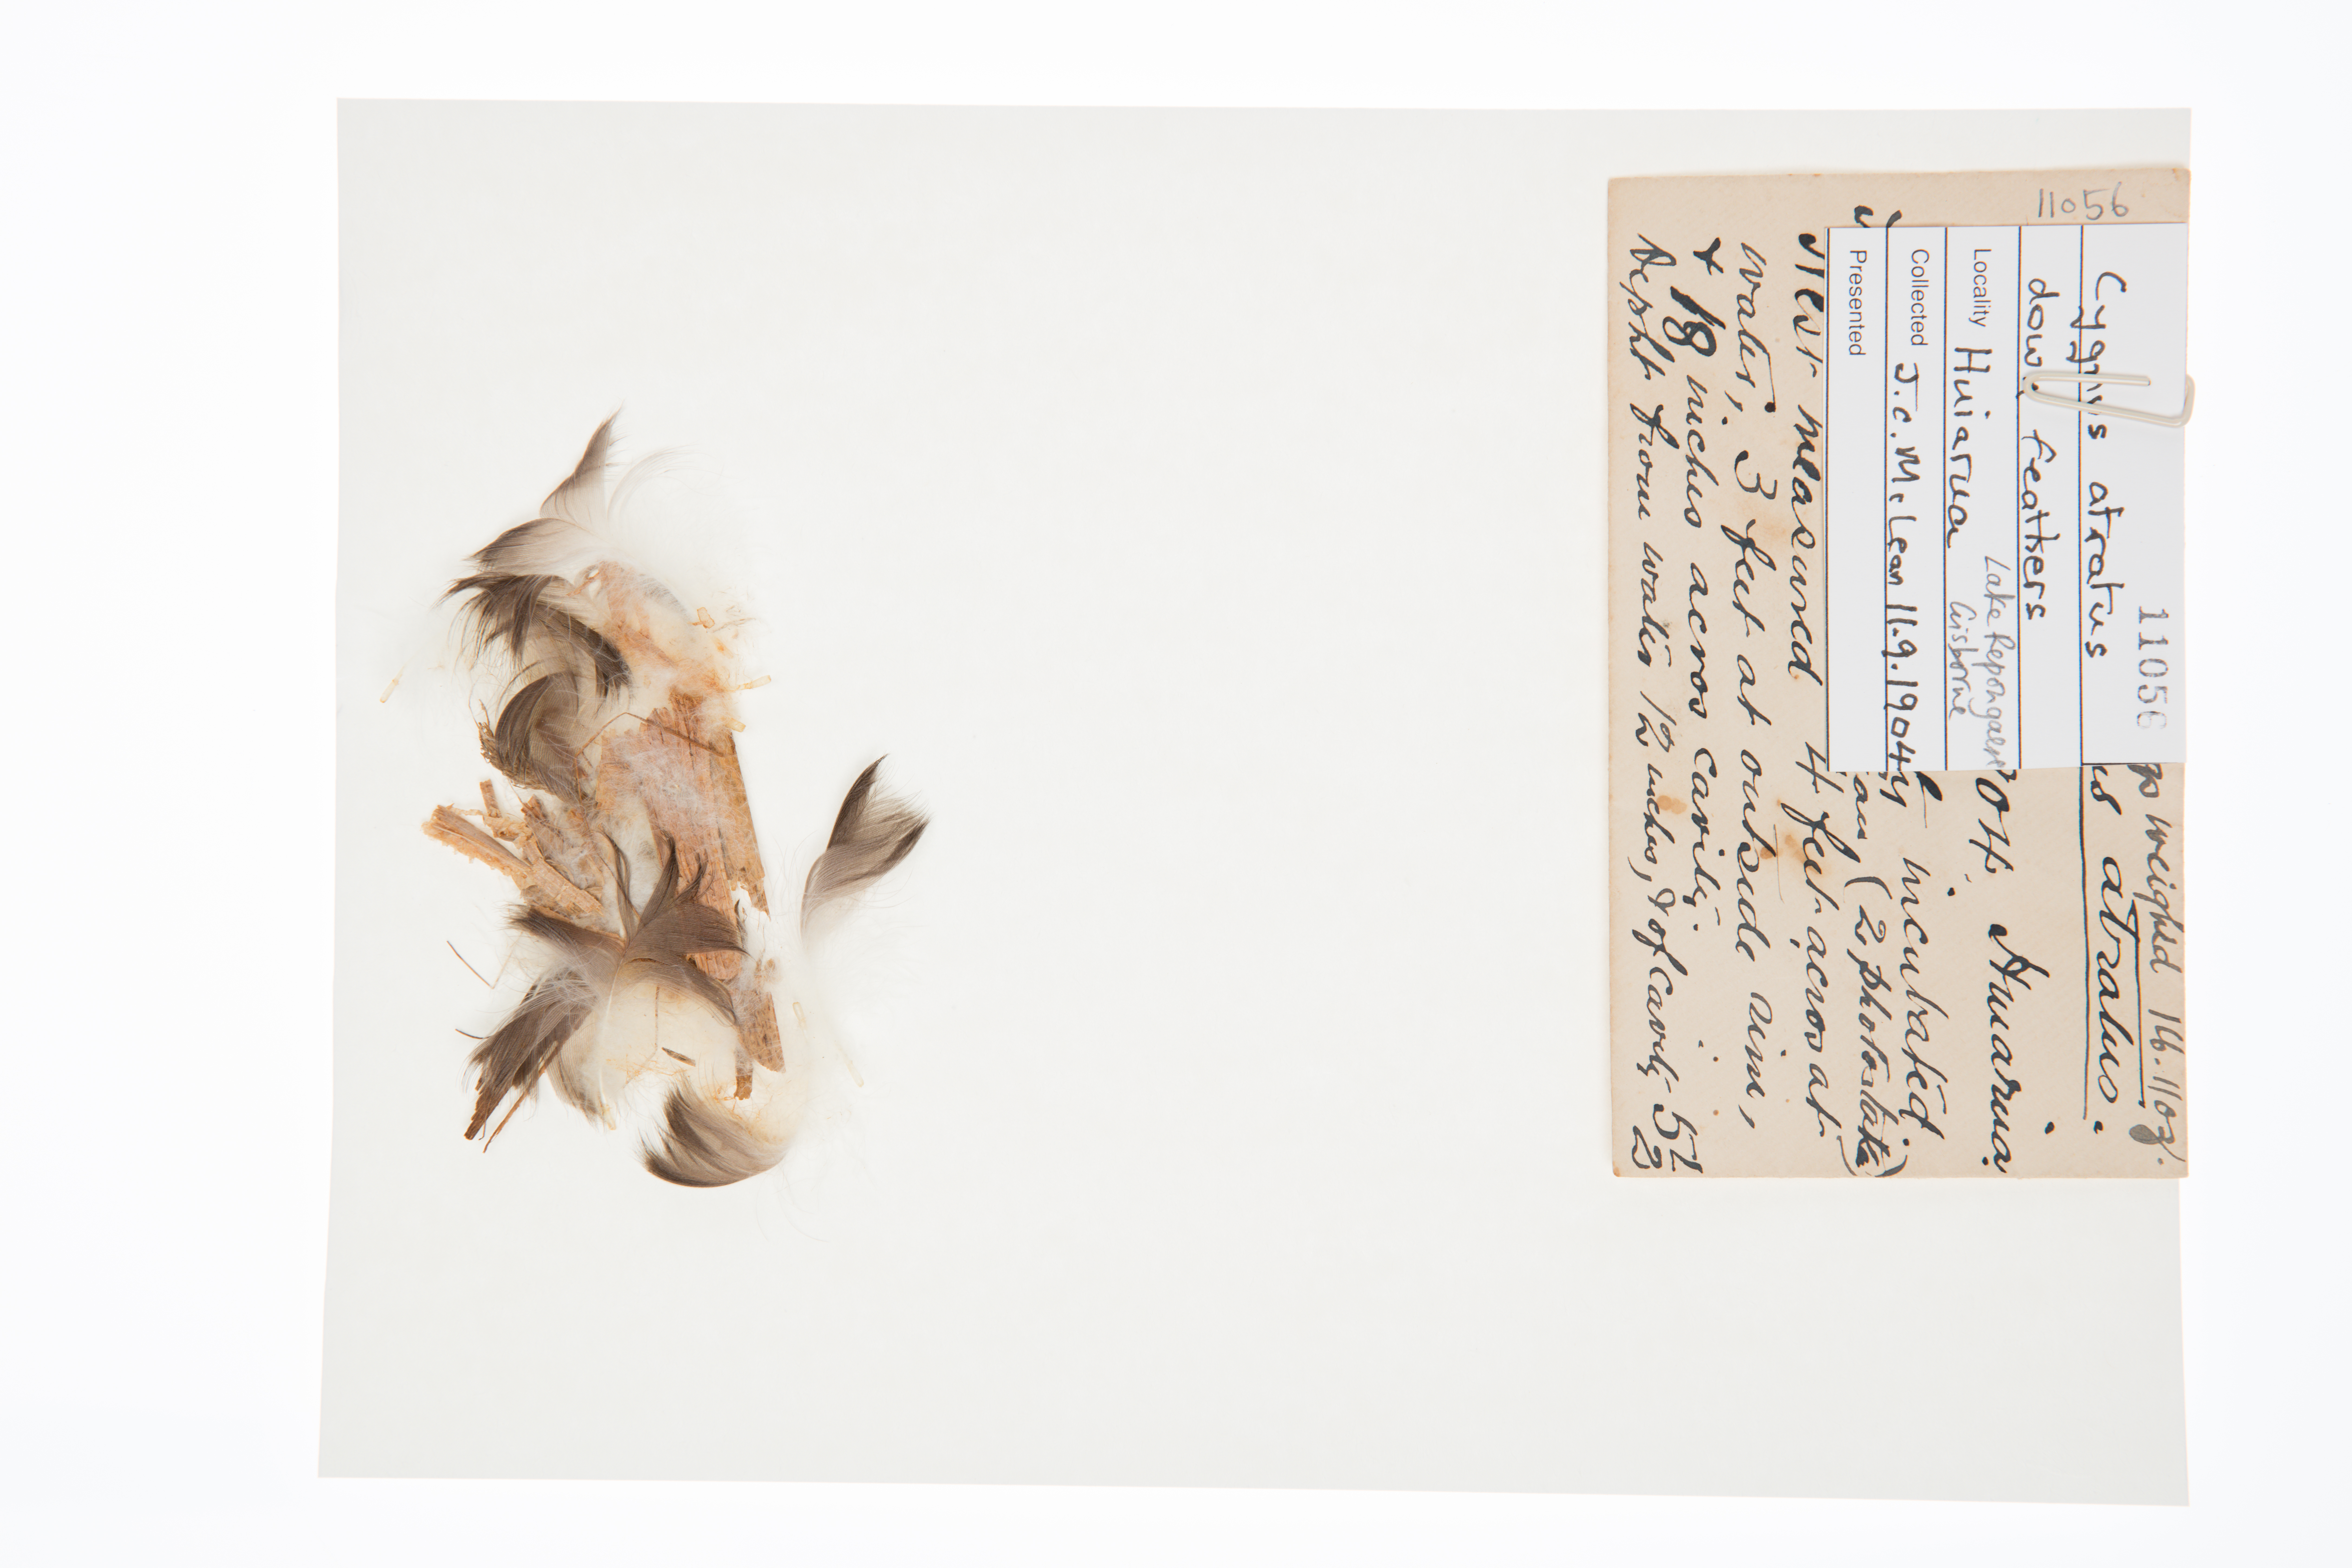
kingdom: Animalia
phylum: Chordata
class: Aves
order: Anseriformes
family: Anatidae
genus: Cygnus
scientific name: Cygnus atratus
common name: Black swan
